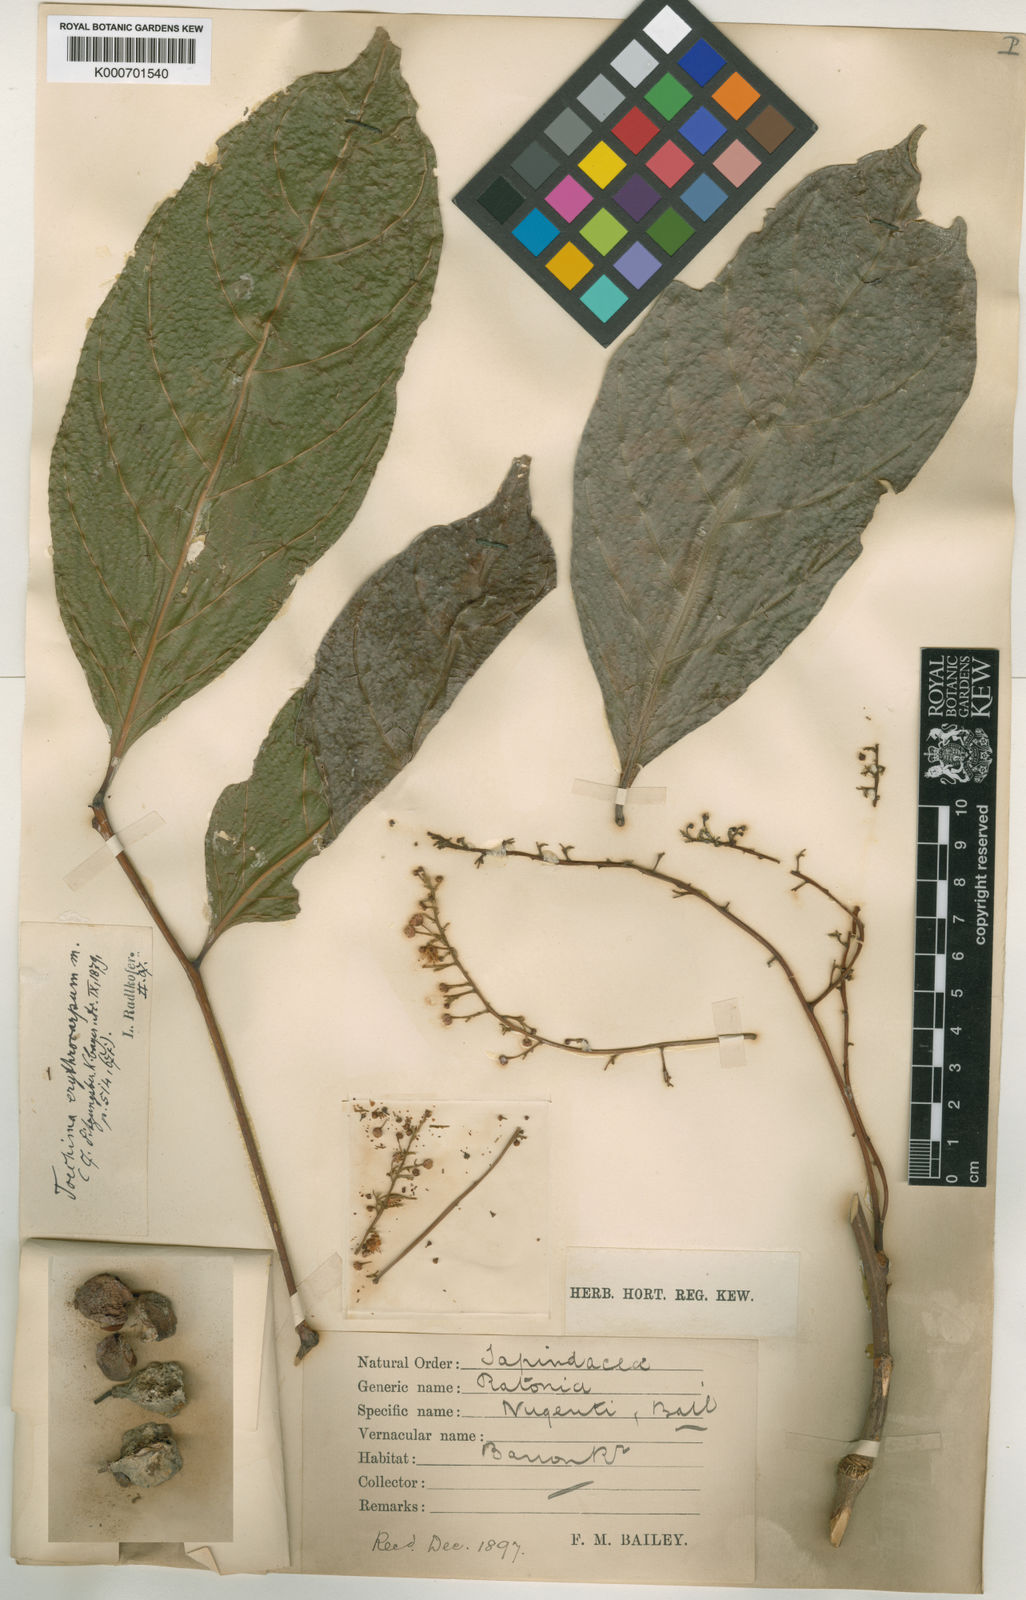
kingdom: Plantae
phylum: Tracheophyta
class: Magnoliopsida
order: Sapindales
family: Sapindaceae
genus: Toechima
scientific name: Toechima erythrocarpum
